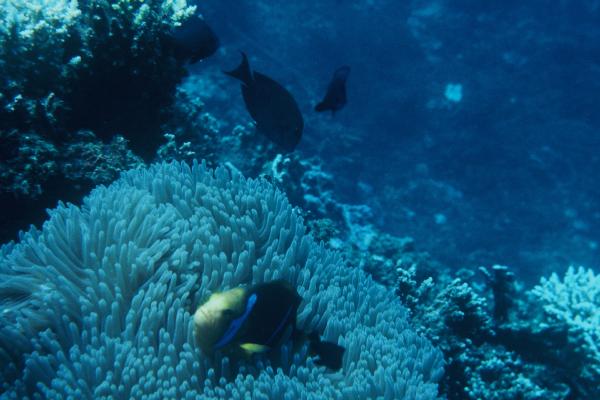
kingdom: Animalia
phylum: Chordata
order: Perciformes
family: Pomacentridae
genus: Amphiprion
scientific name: Amphiprion chrysopterus
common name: Orange-fin anemonefish
